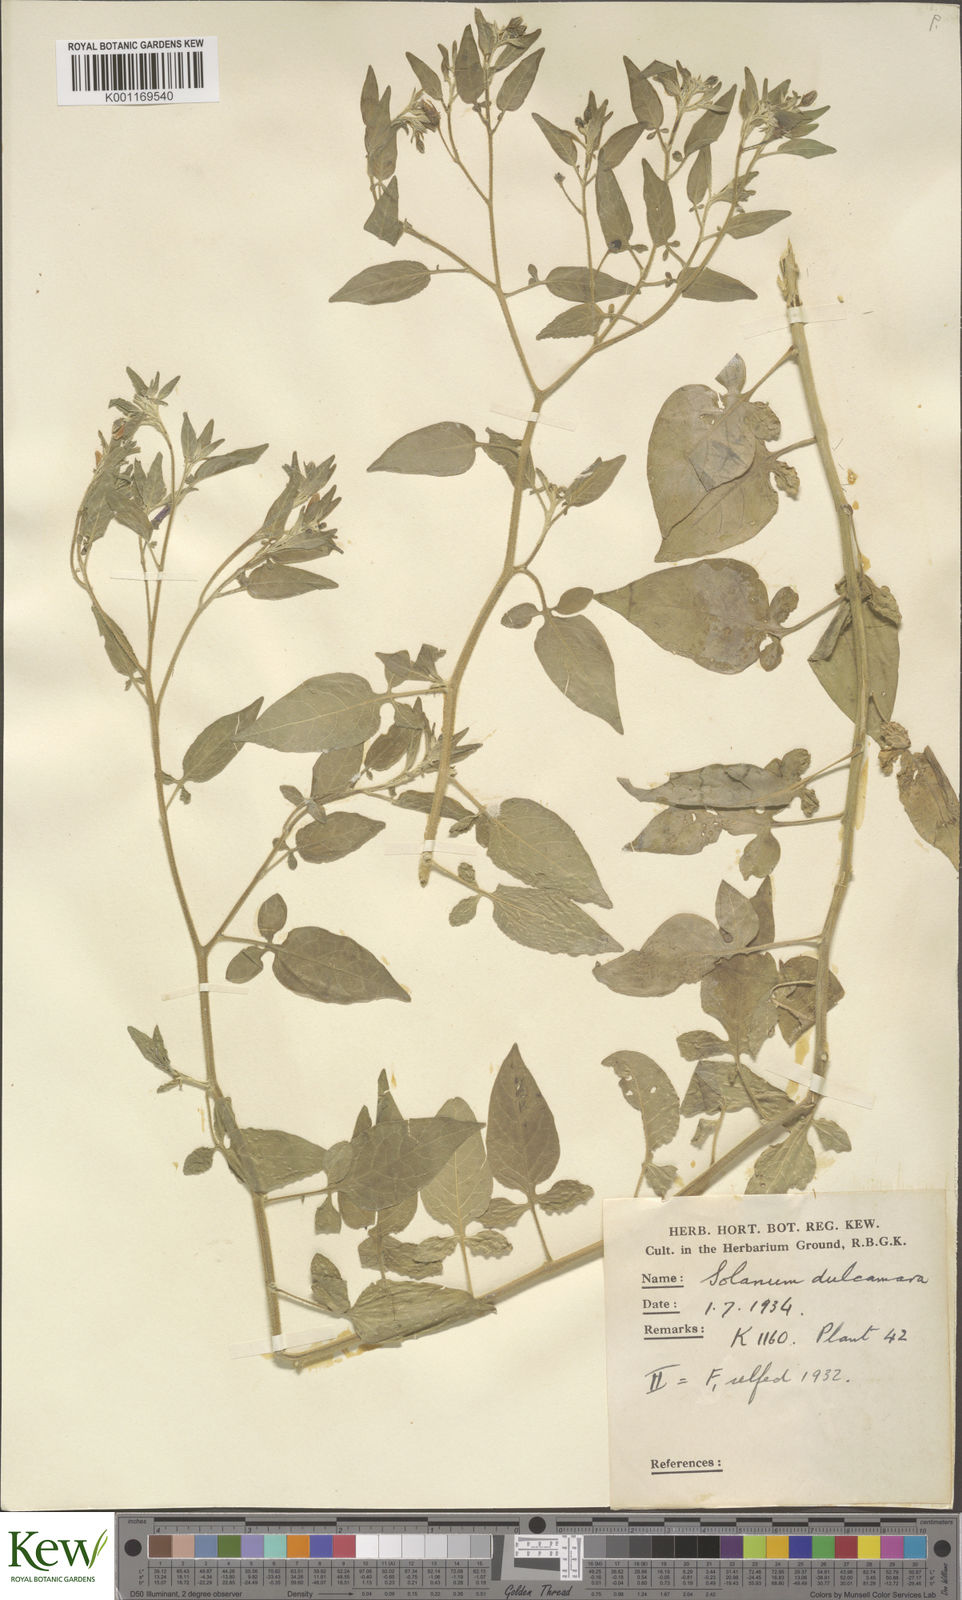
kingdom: Plantae
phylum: Tracheophyta
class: Magnoliopsida
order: Solanales
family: Solanaceae
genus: Solanum
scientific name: Solanum dulcamara
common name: Climbing nightshade
